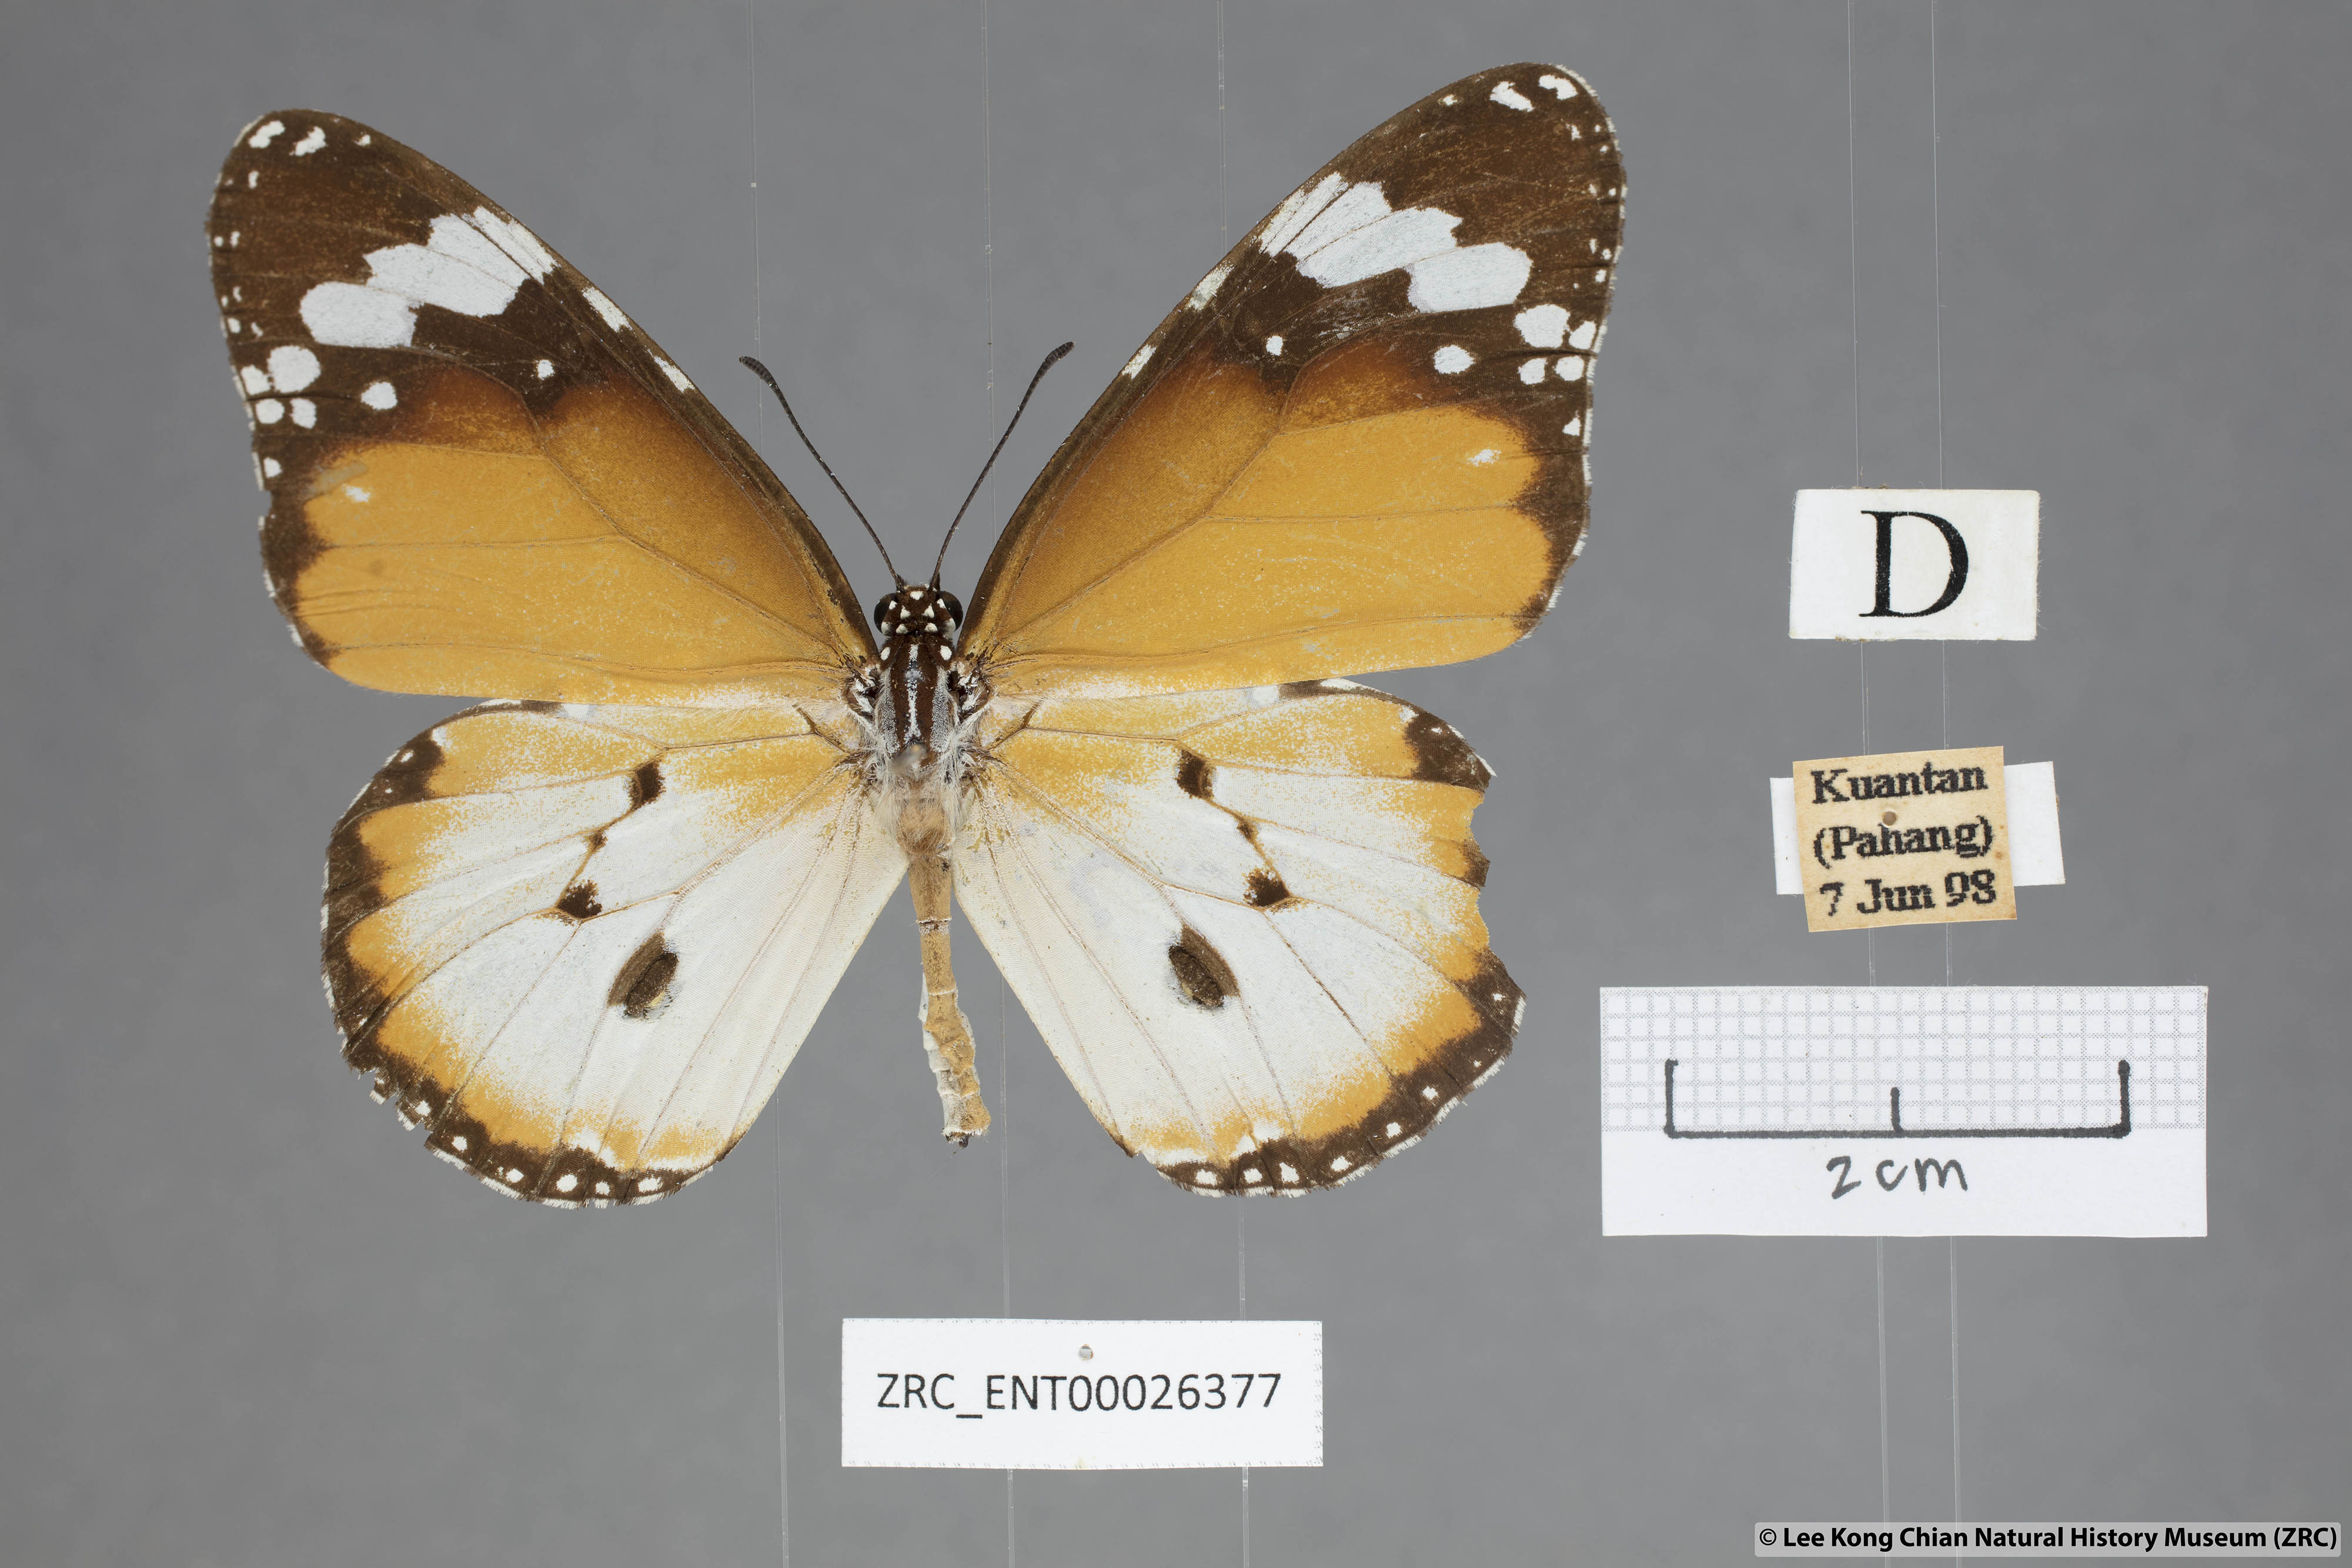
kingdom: Animalia
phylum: Arthropoda
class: Insecta
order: Lepidoptera
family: Nymphalidae
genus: Danaus
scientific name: Danaus chrysippus
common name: Plain tiger
